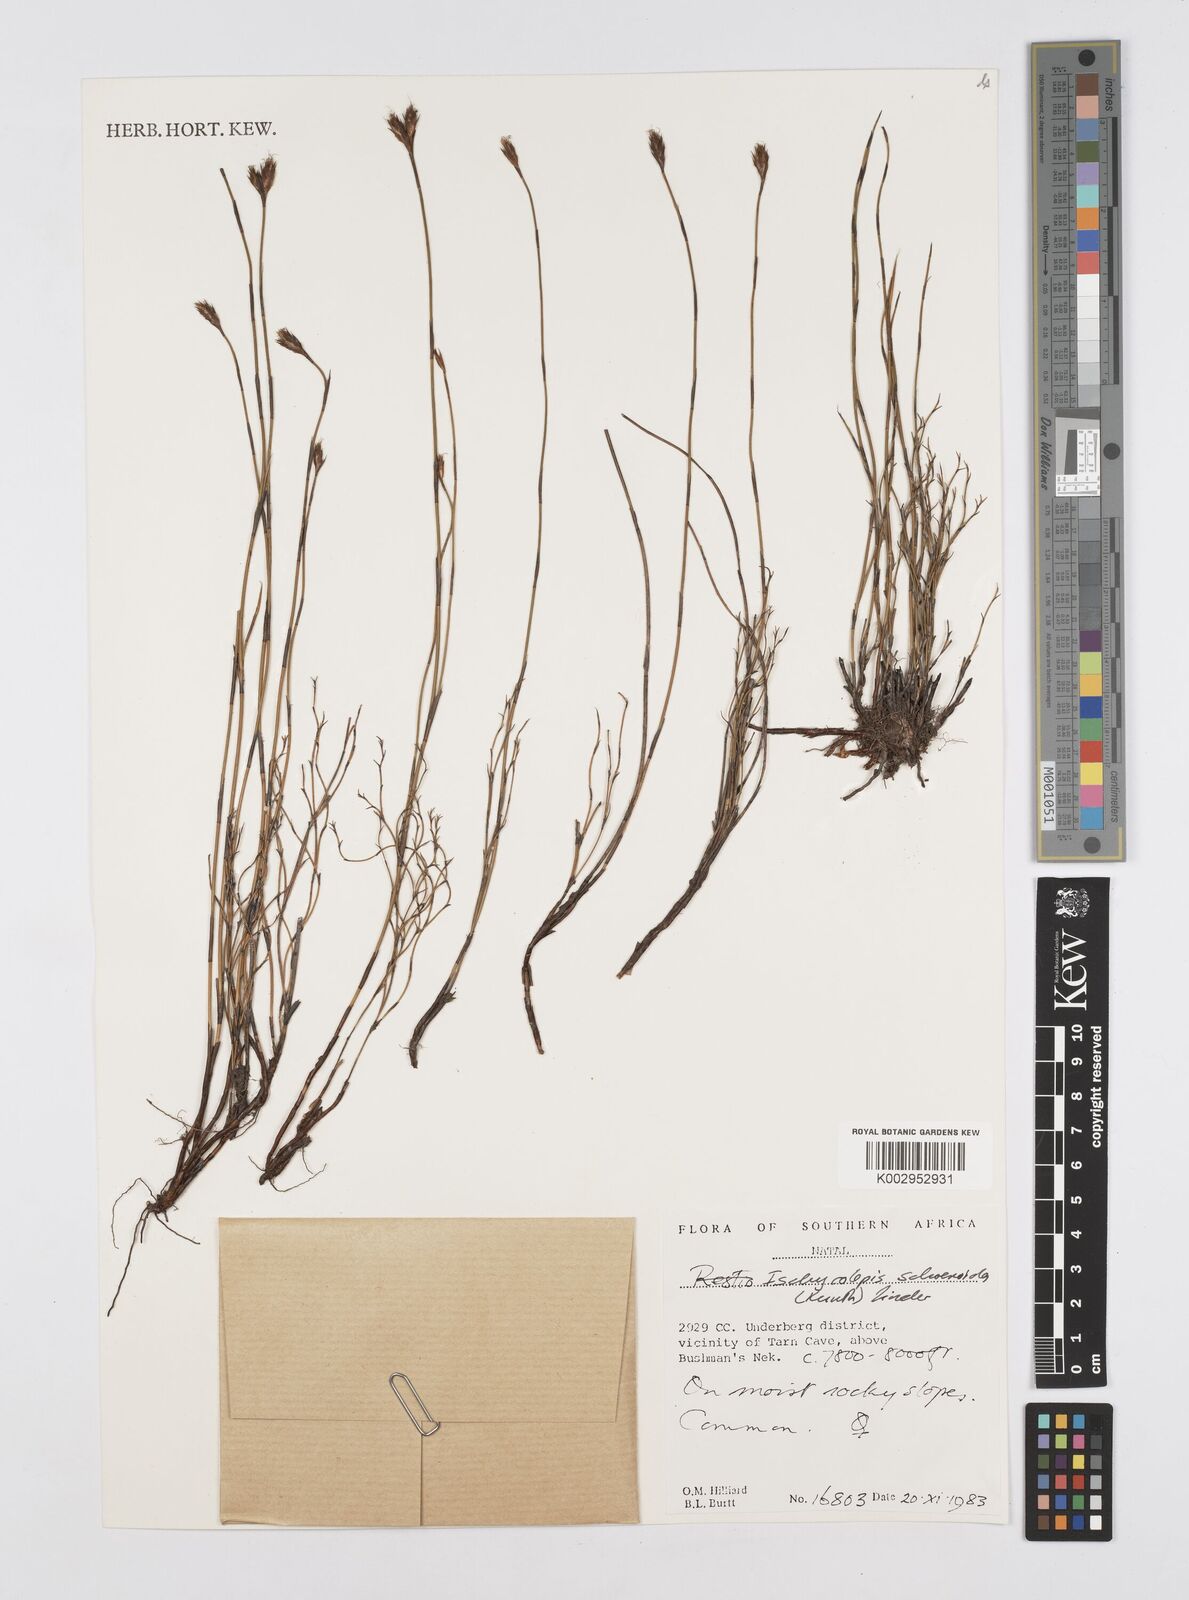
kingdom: Plantae
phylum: Tracheophyta
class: Liliopsida
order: Poales
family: Restionaceae
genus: Restio
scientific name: Restio schoenoides
